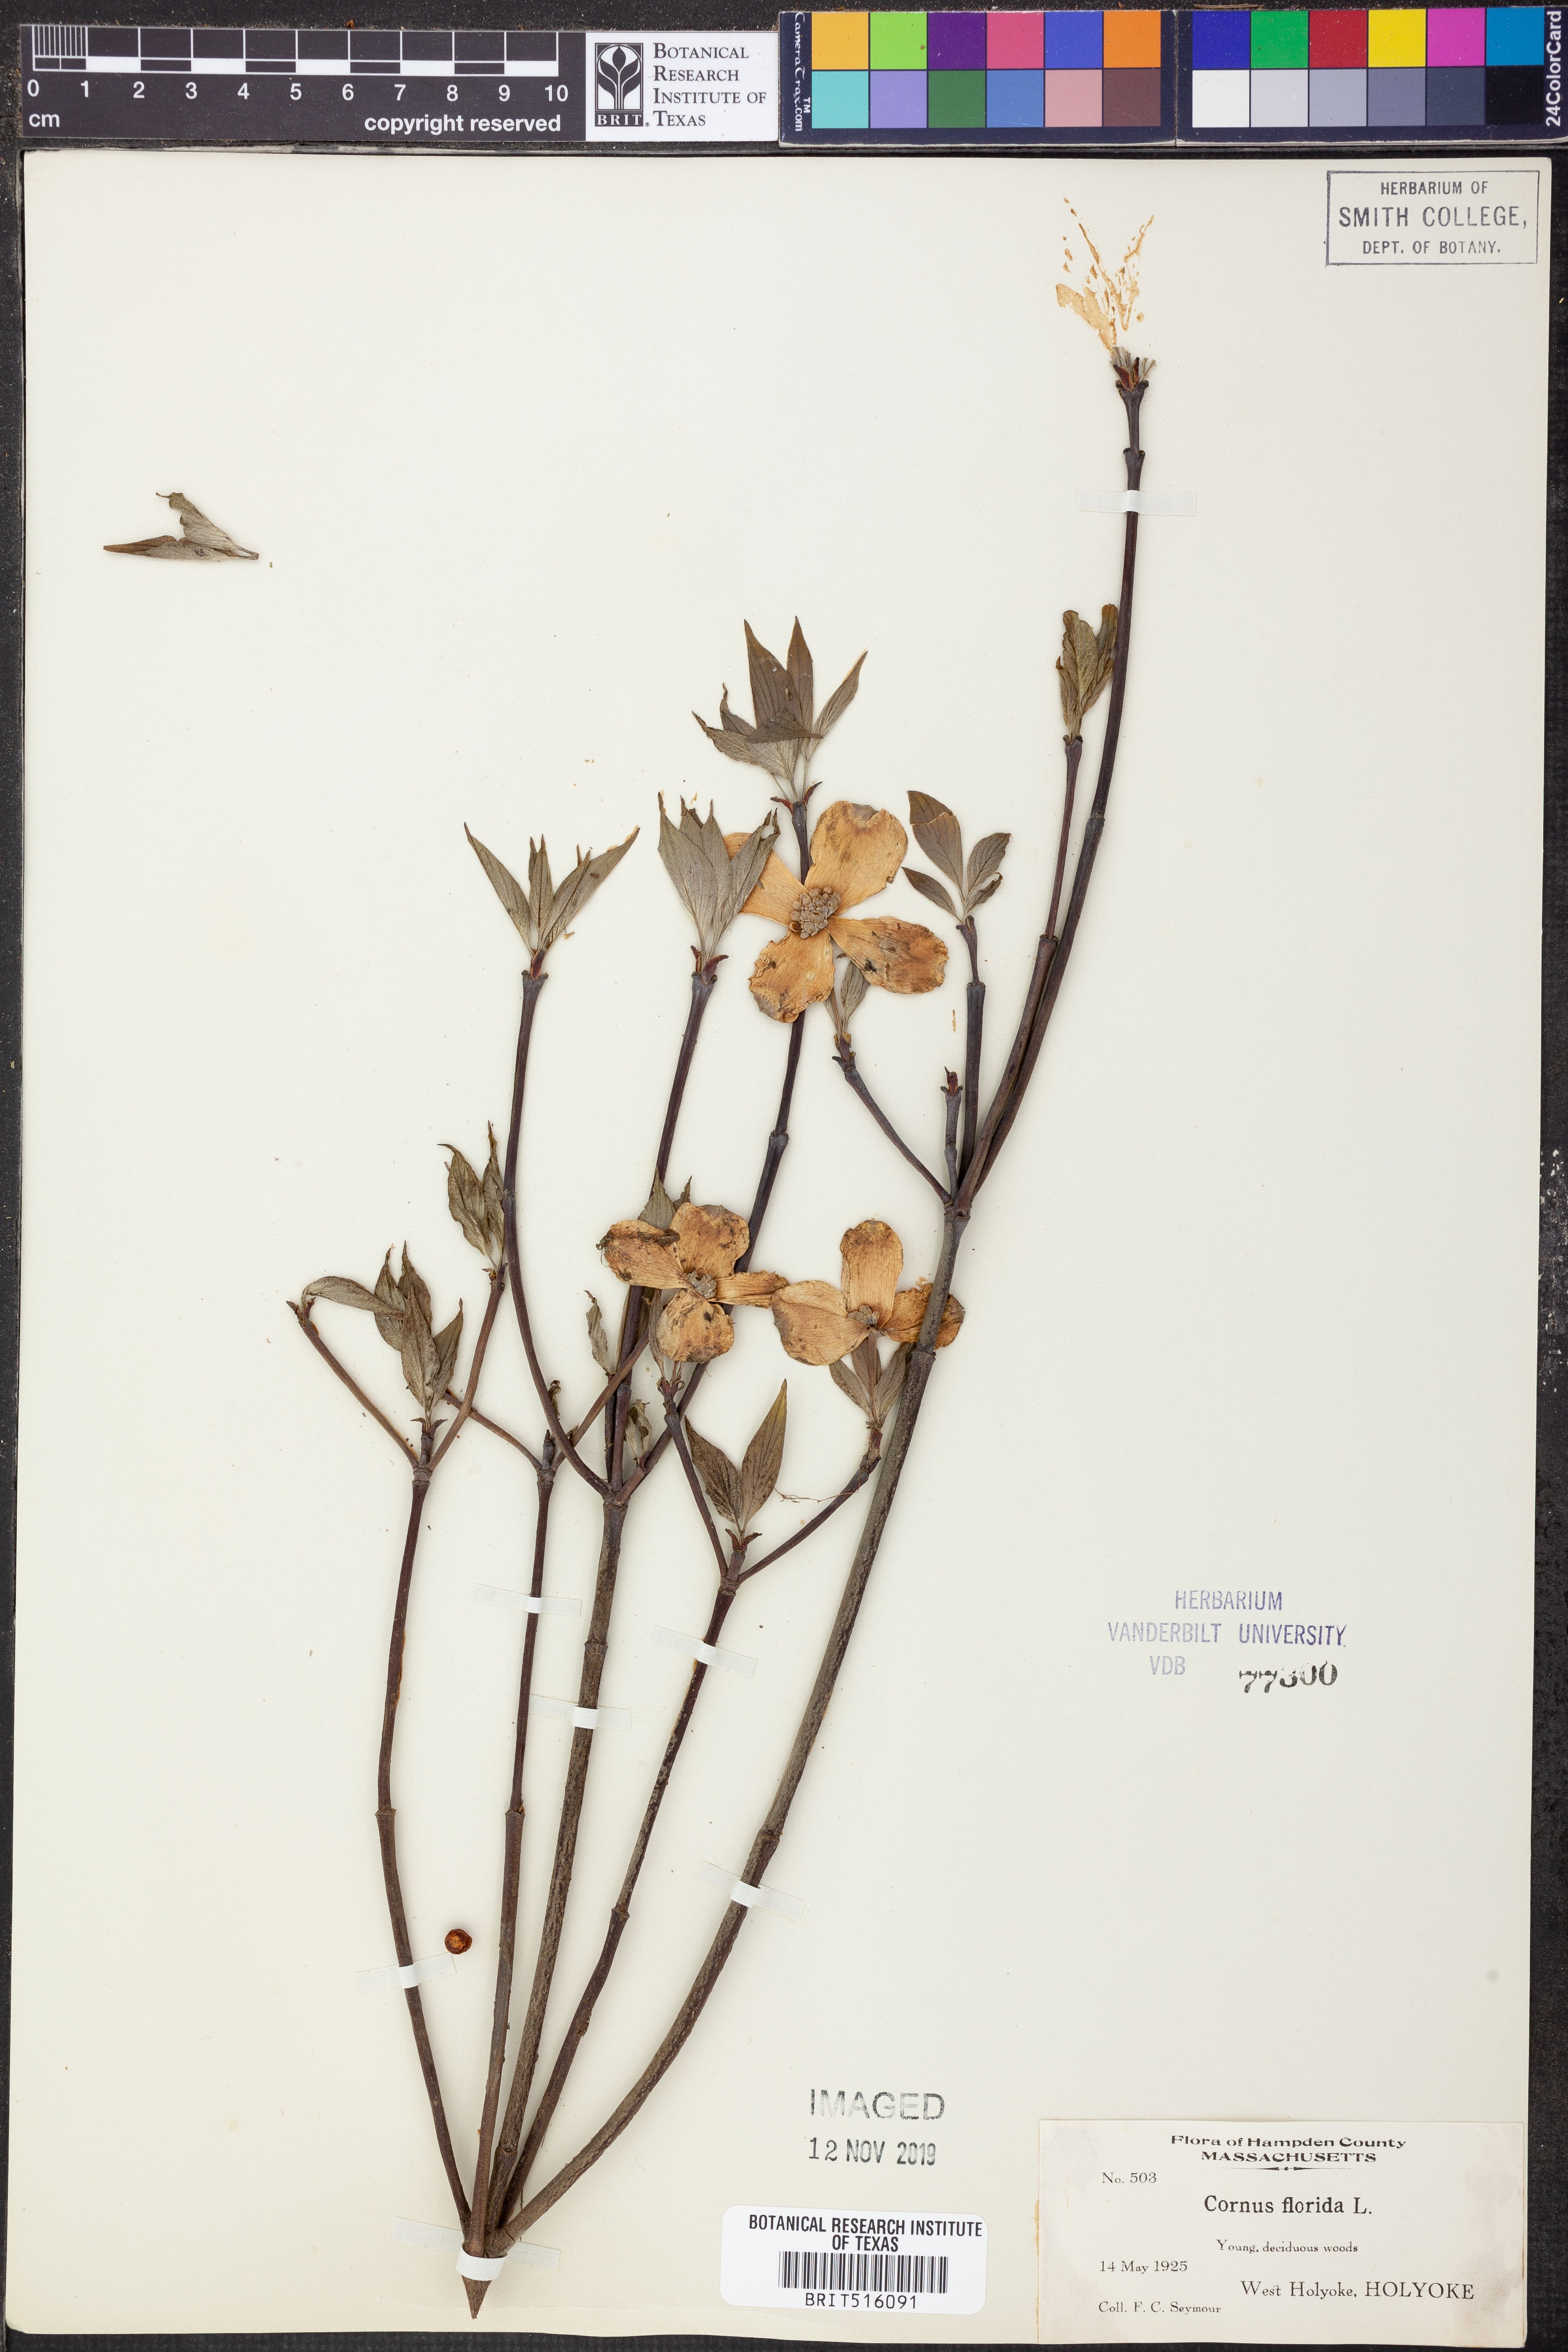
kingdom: Plantae
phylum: Tracheophyta
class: Magnoliopsida
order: Cornales
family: Cornaceae
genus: Cornus
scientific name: Cornus florida
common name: Flowering dogwood
